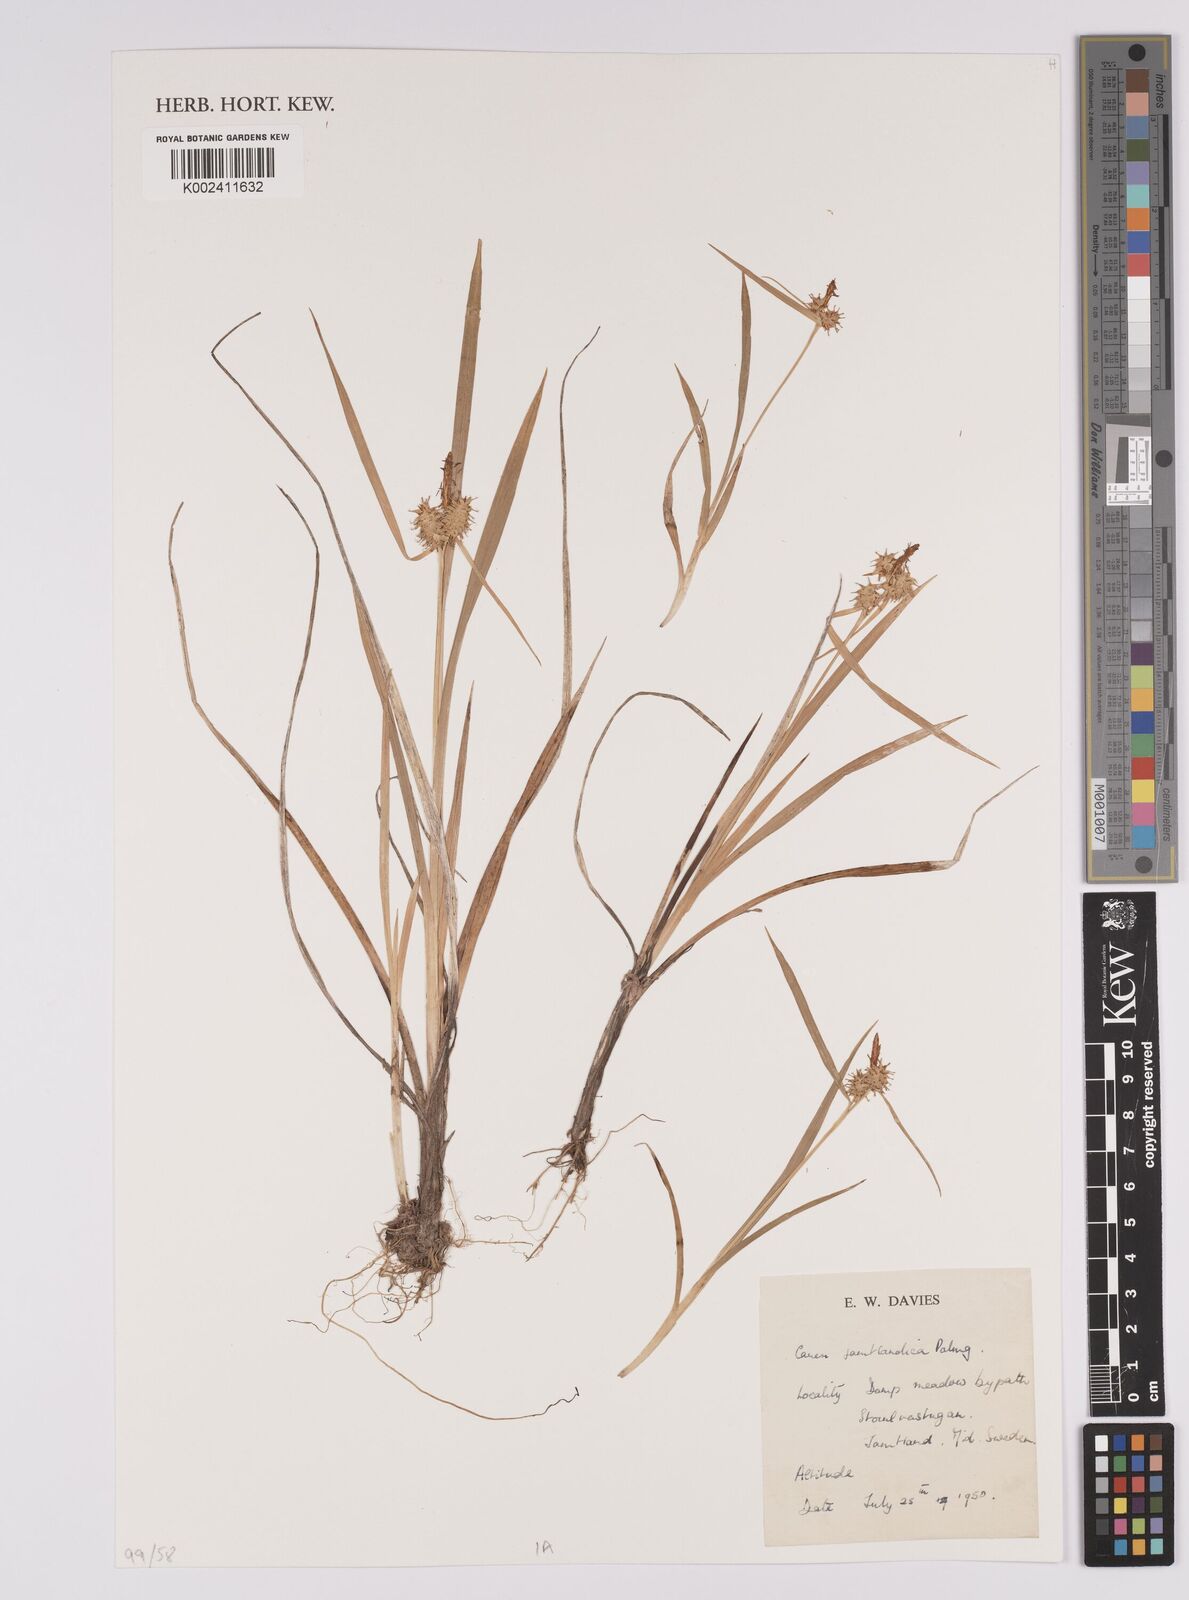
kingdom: Plantae
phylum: Tracheophyta
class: Liliopsida
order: Poales
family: Cyperaceae
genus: Rhynchospora
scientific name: Rhynchospora
